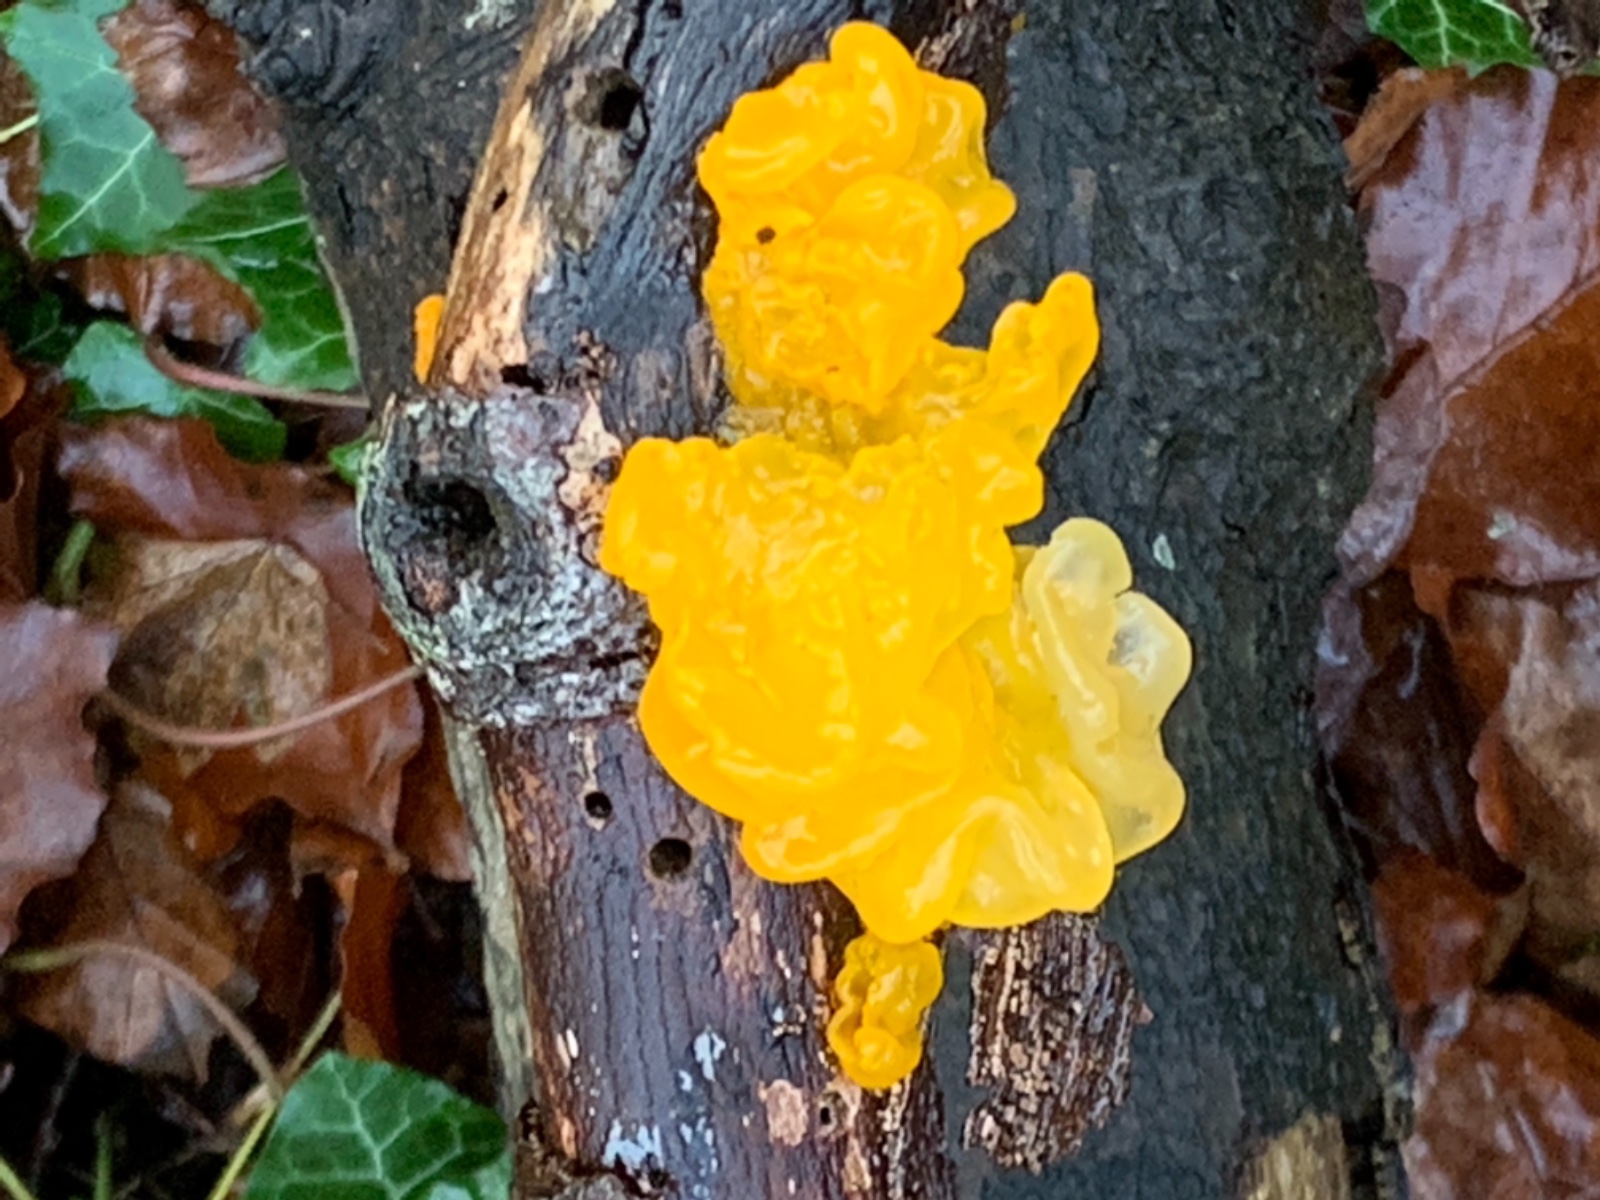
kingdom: Fungi
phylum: Basidiomycota
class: Tremellomycetes
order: Tremellales
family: Tremellaceae
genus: Tremella
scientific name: Tremella mesenterica
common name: gul bævresvamp
